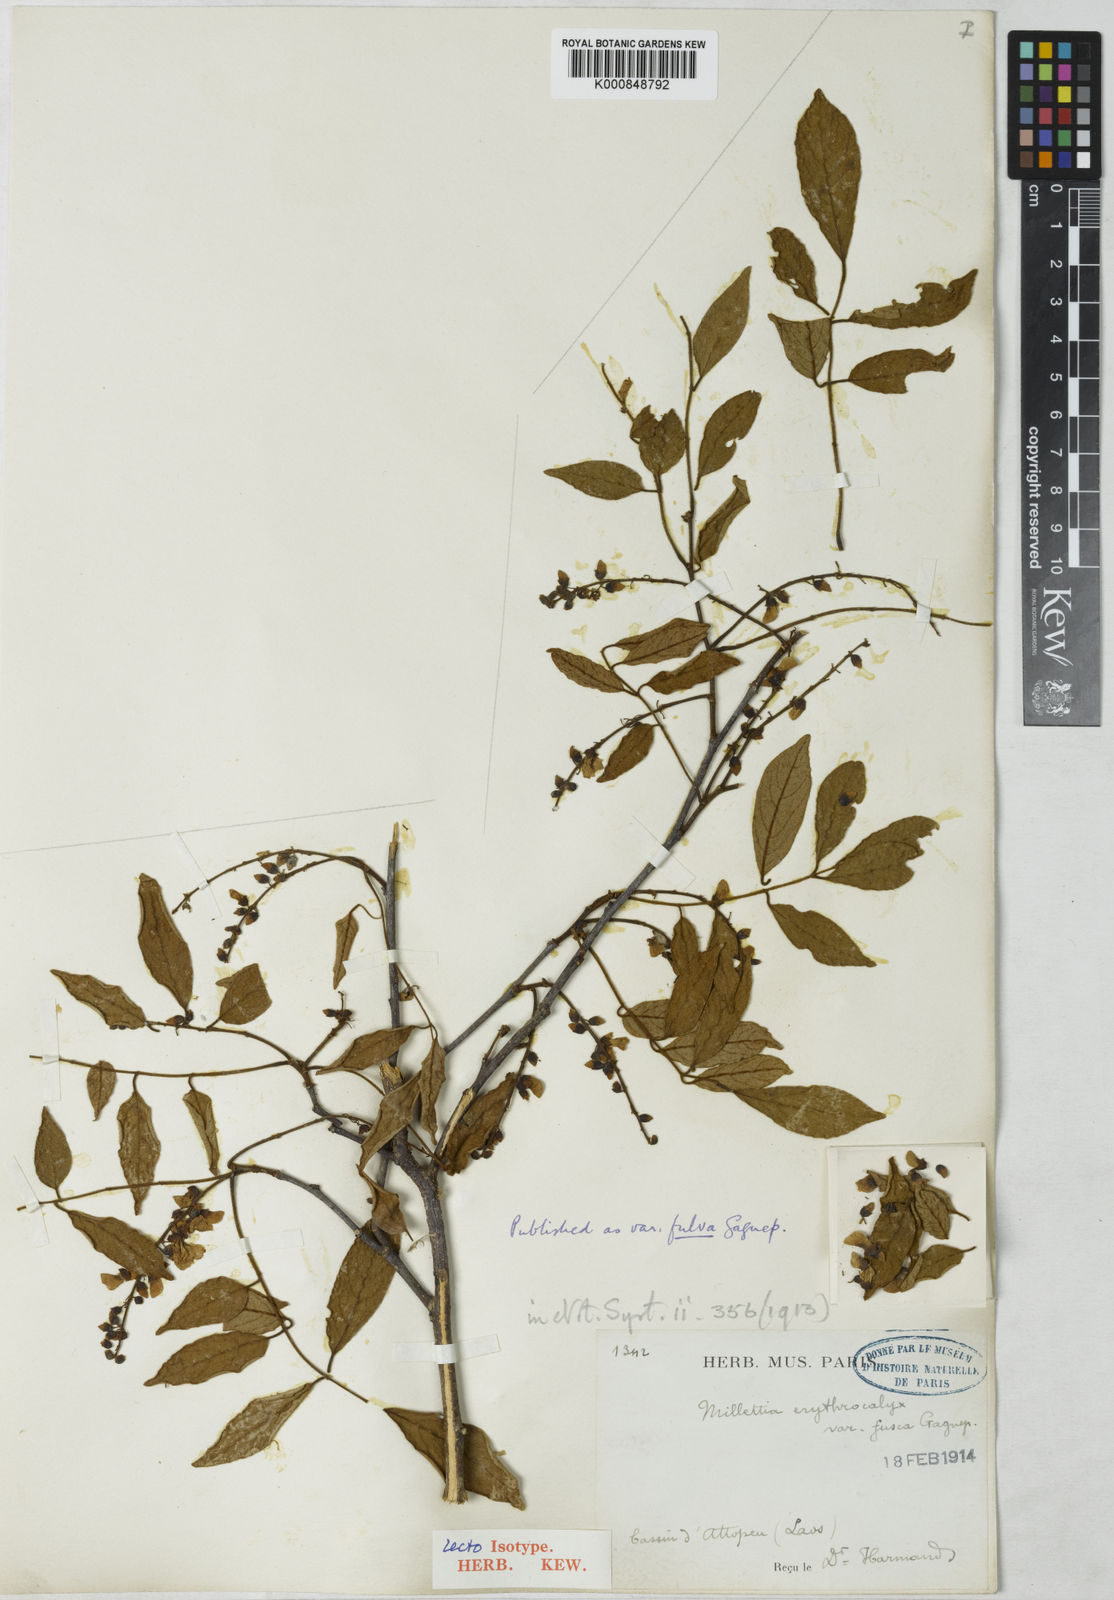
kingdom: Plantae
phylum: Tracheophyta
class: Magnoliopsida
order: Fabales
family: Fabaceae
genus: Millettia
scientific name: Millettia erythrocalyx
